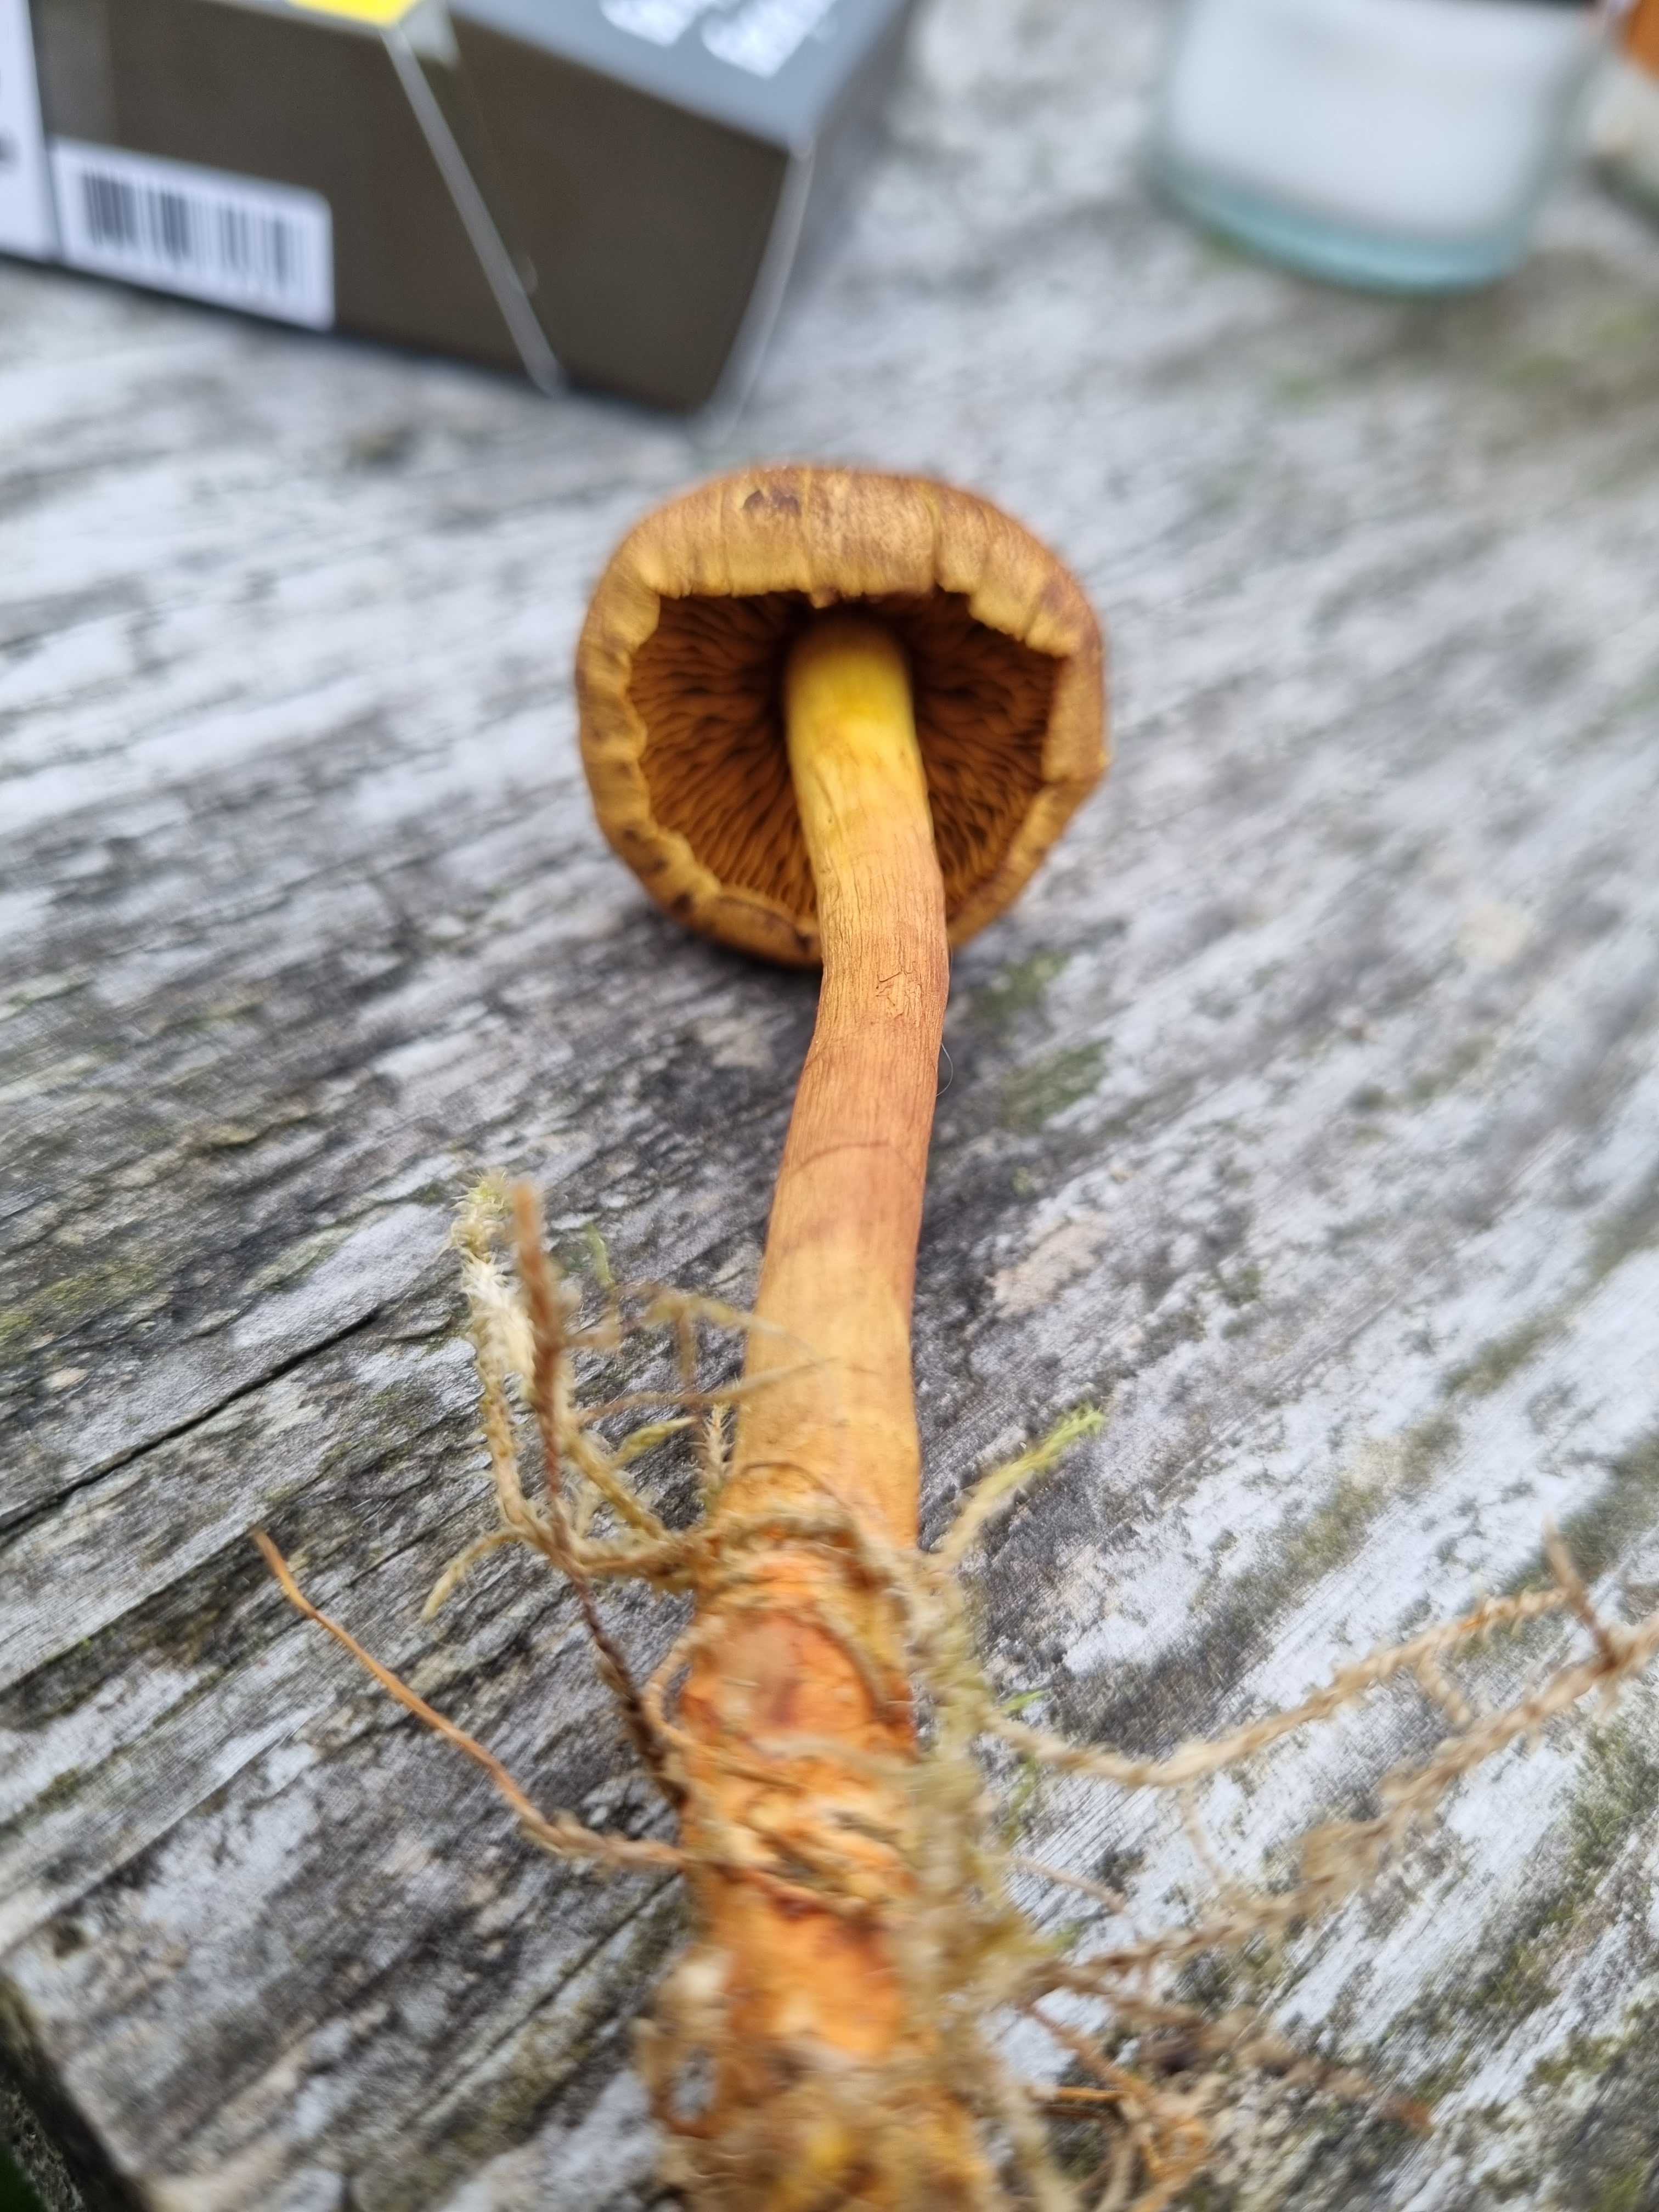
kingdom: Fungi
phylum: Basidiomycota
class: Agaricomycetes
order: Agaricales
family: Cortinariaceae
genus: Cortinarius
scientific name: Cortinarius
